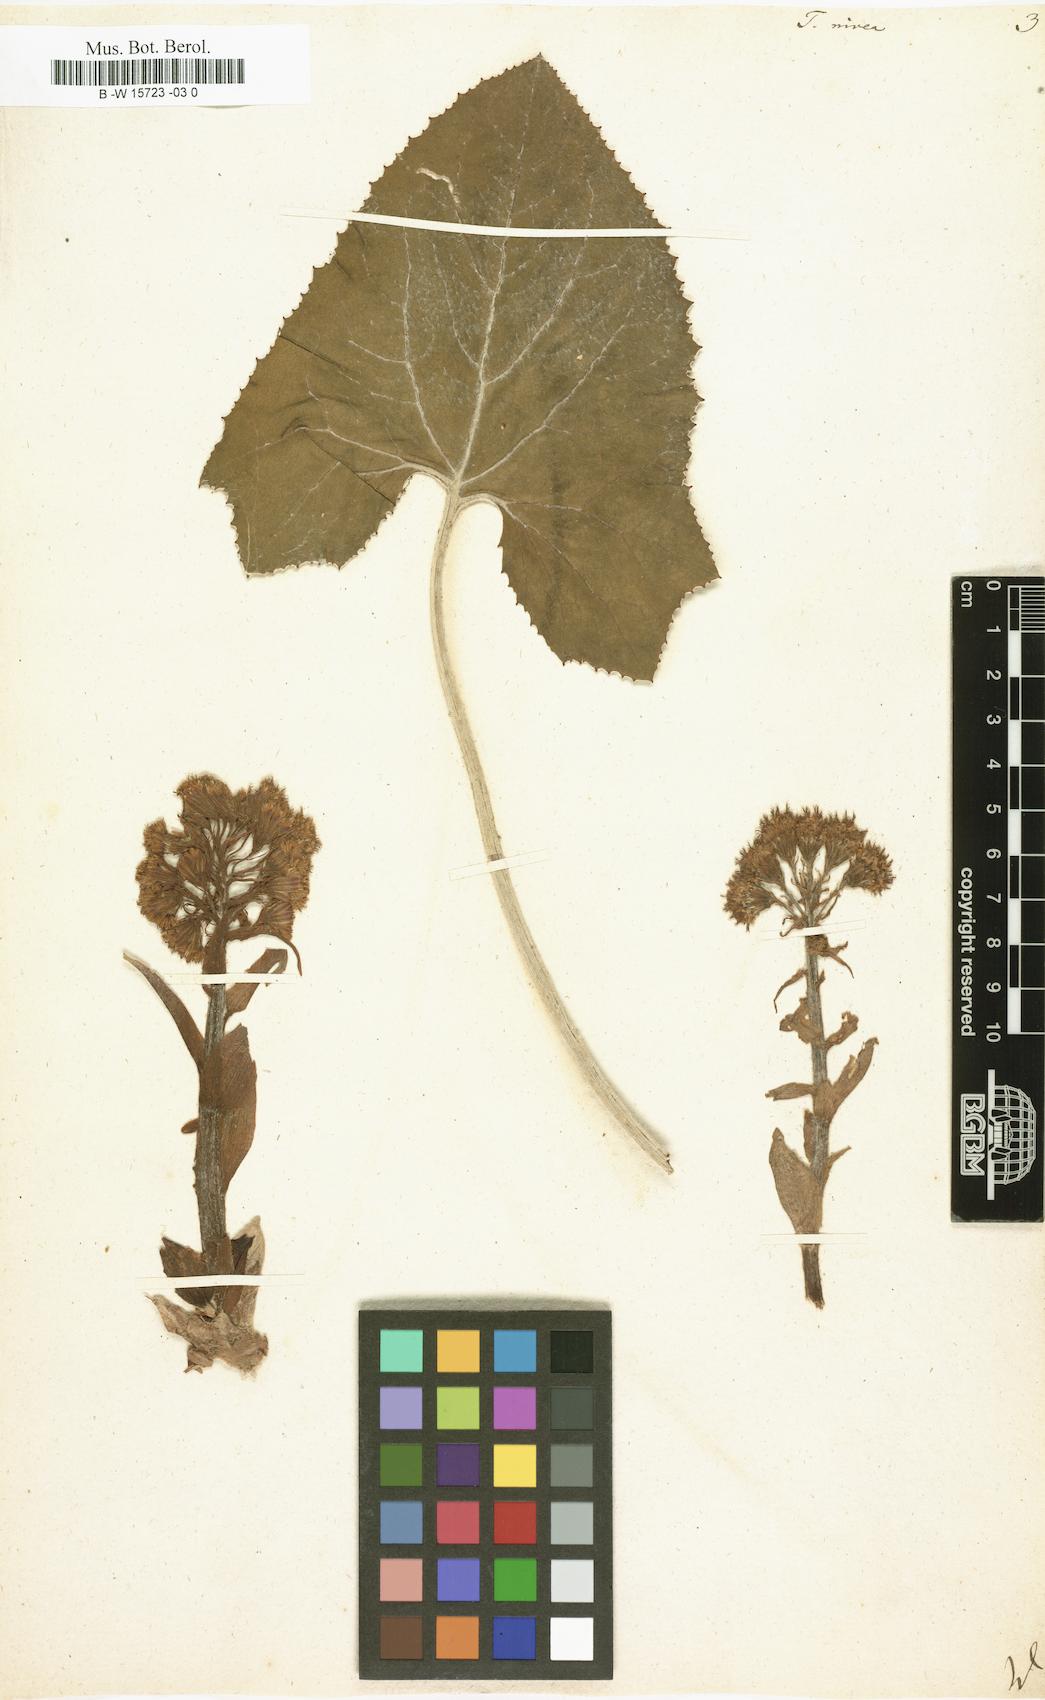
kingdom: Plantae
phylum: Tracheophyta
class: Magnoliopsida
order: Asterales
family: Asteraceae
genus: Petasites
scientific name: Petasites paradoxus
